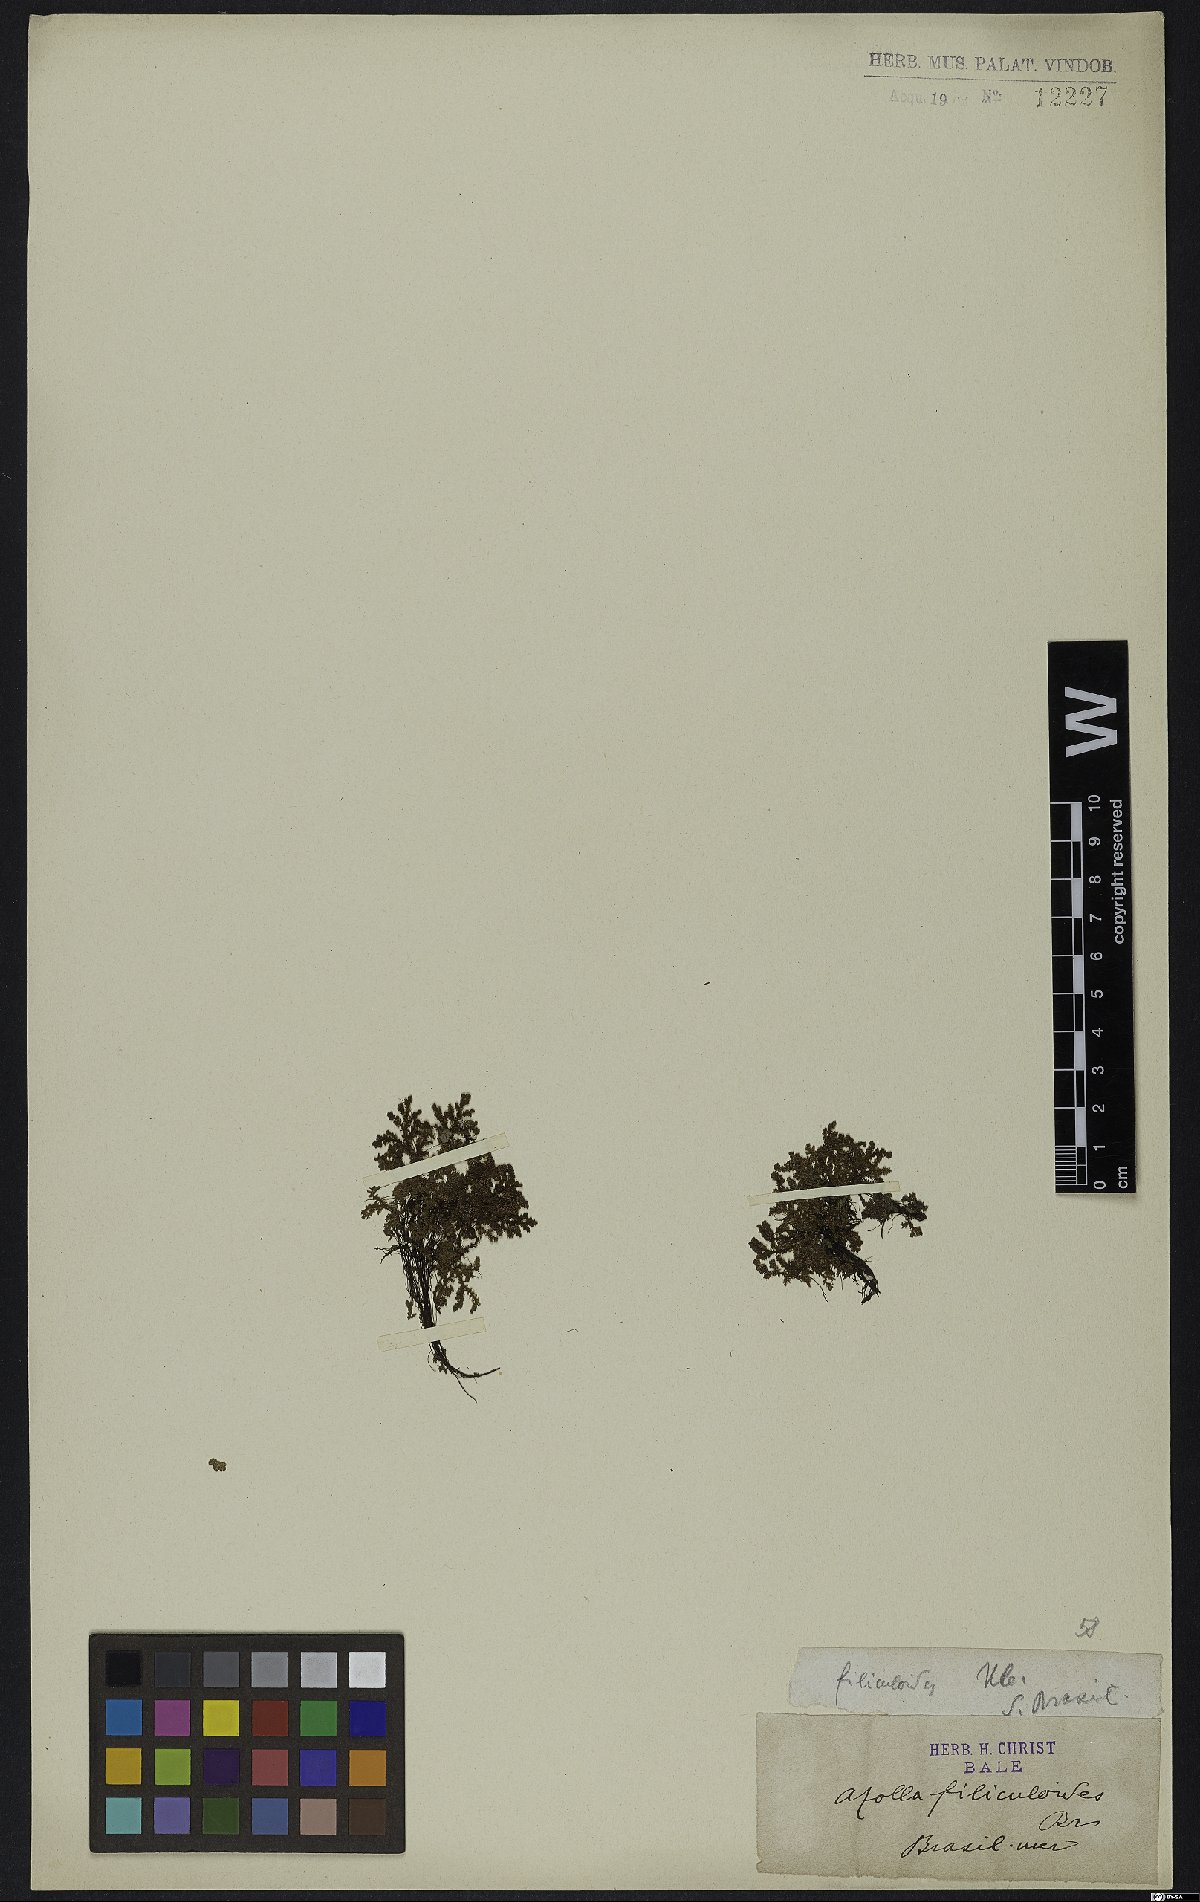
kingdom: Plantae
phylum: Tracheophyta
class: Polypodiopsida
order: Salviniales
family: Salviniaceae
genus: Azolla
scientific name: Azolla filiculoides
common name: Water fern
